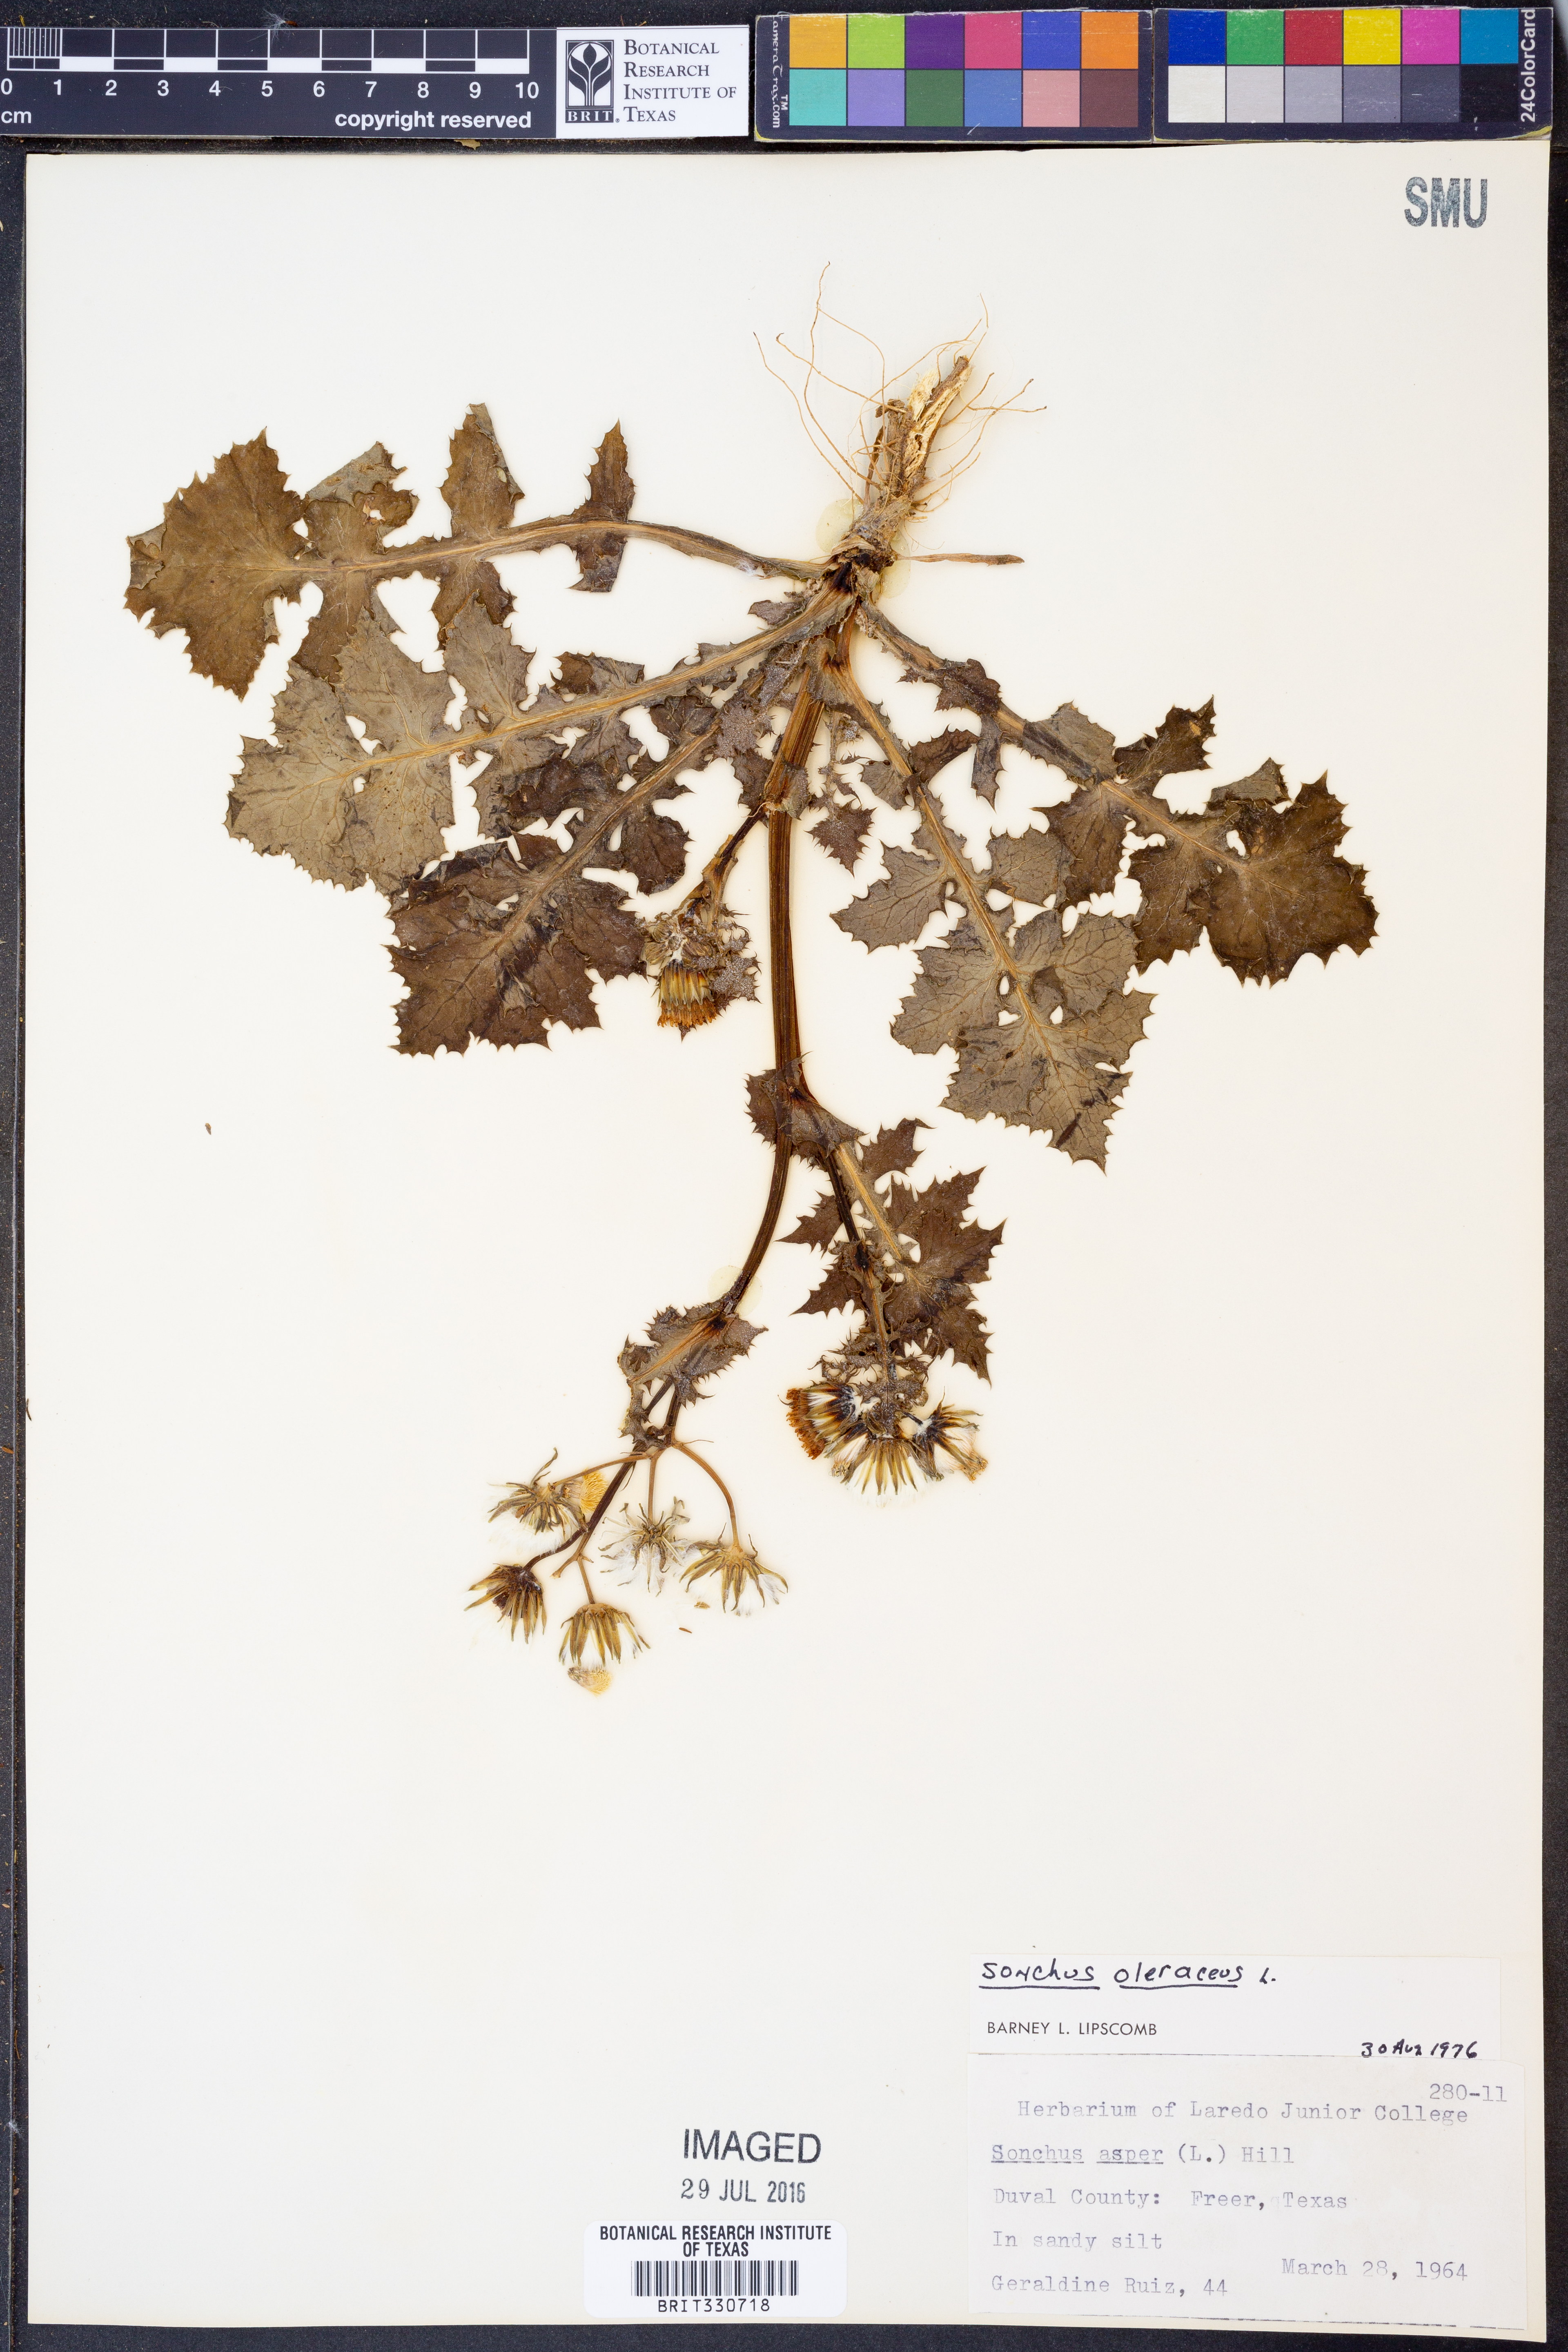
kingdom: Plantae
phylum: Tracheophyta
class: Magnoliopsida
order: Asterales
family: Asteraceae
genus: Sonchus
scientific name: Sonchus oleraceus
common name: Common sowthistle
